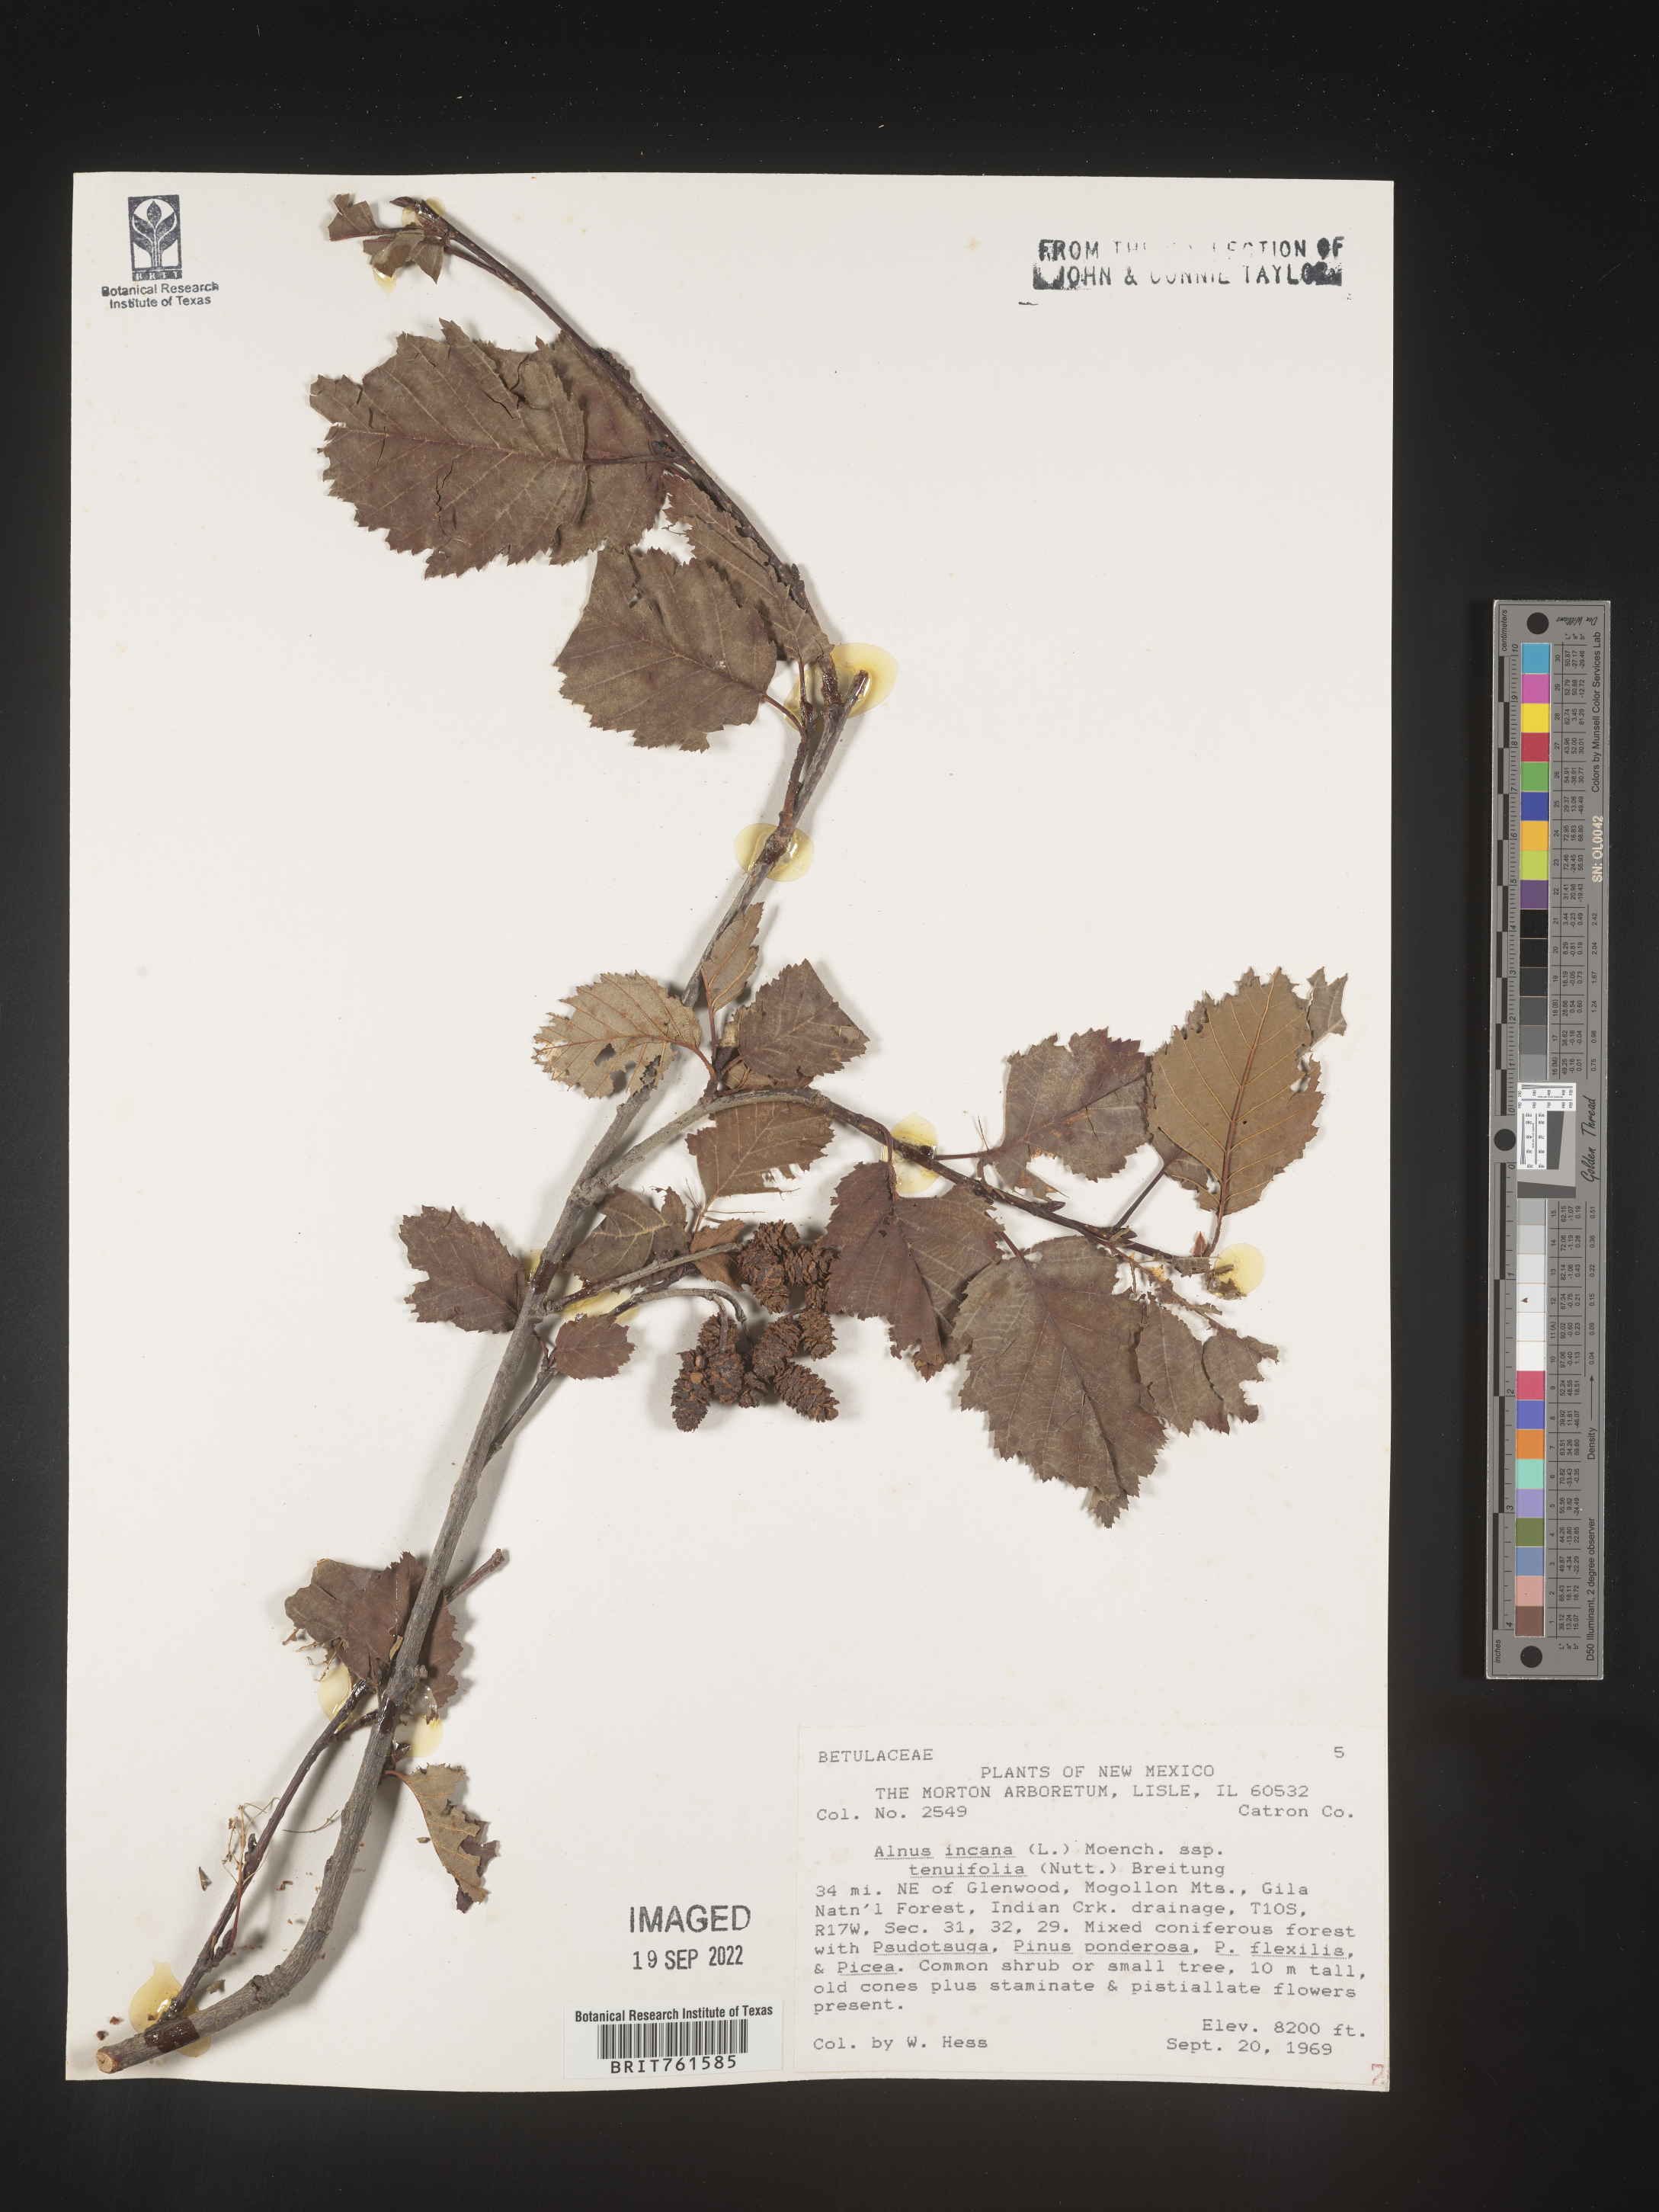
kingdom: Plantae
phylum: Tracheophyta
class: Magnoliopsida
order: Fagales
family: Betulaceae
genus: Alnus
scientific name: Alnus incana
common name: Grey alder
